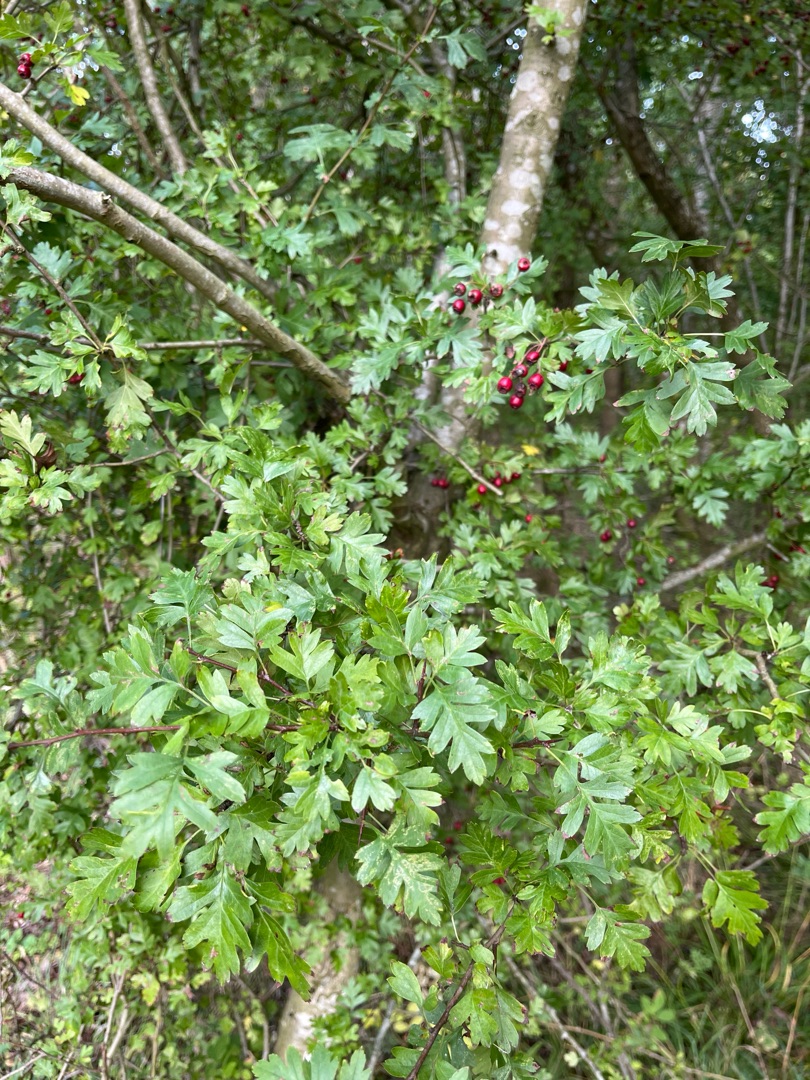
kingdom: Plantae
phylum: Tracheophyta
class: Magnoliopsida
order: Rosales
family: Rosaceae
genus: Crataegus
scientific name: Crataegus monogyna
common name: Engriflet hvidtjørn
